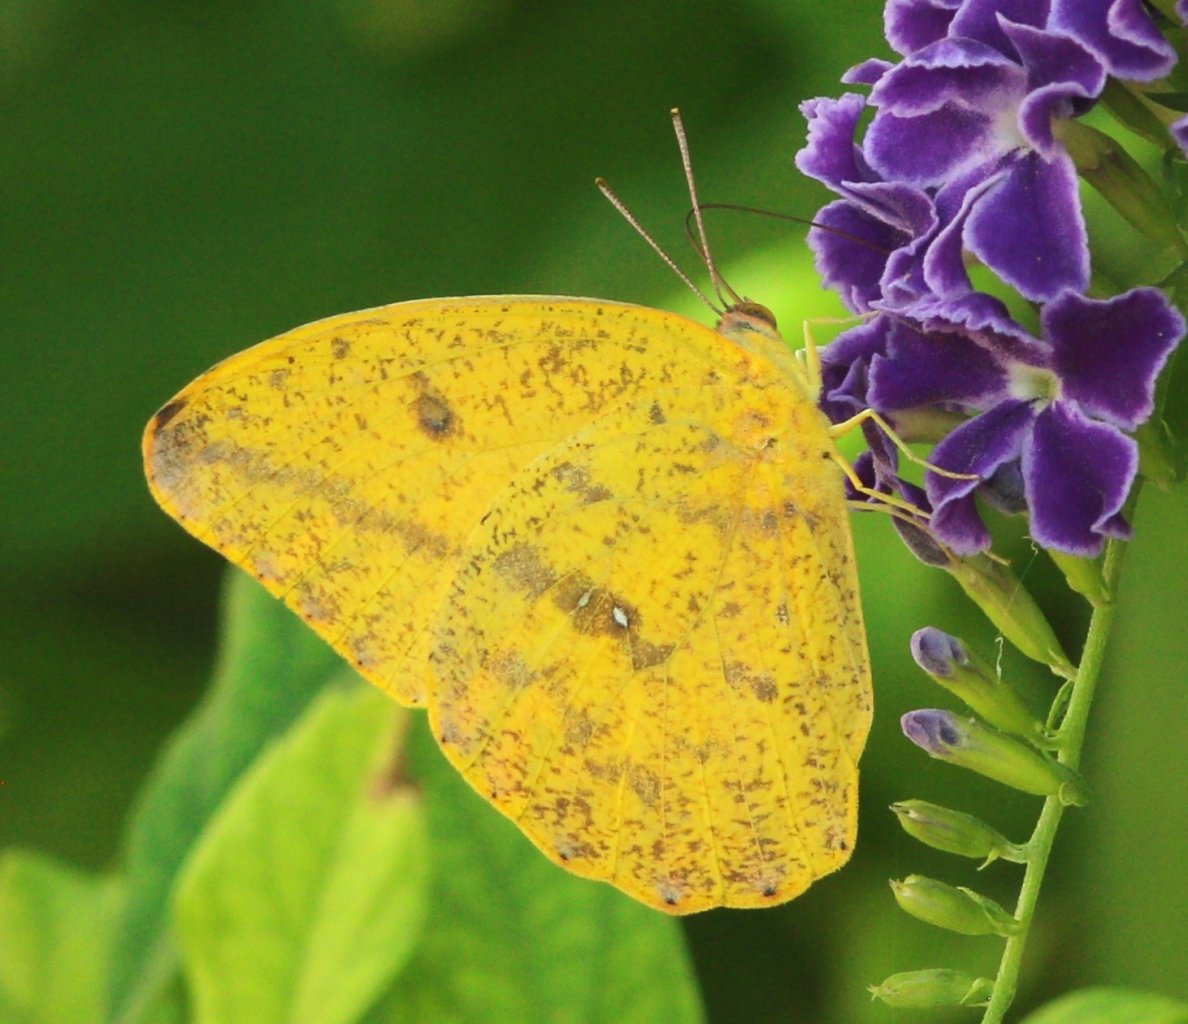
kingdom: Animalia
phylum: Arthropoda
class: Insecta
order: Lepidoptera
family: Pieridae
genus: Phoebis
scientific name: Phoebis agarithe
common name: Large Orange Sulphur
